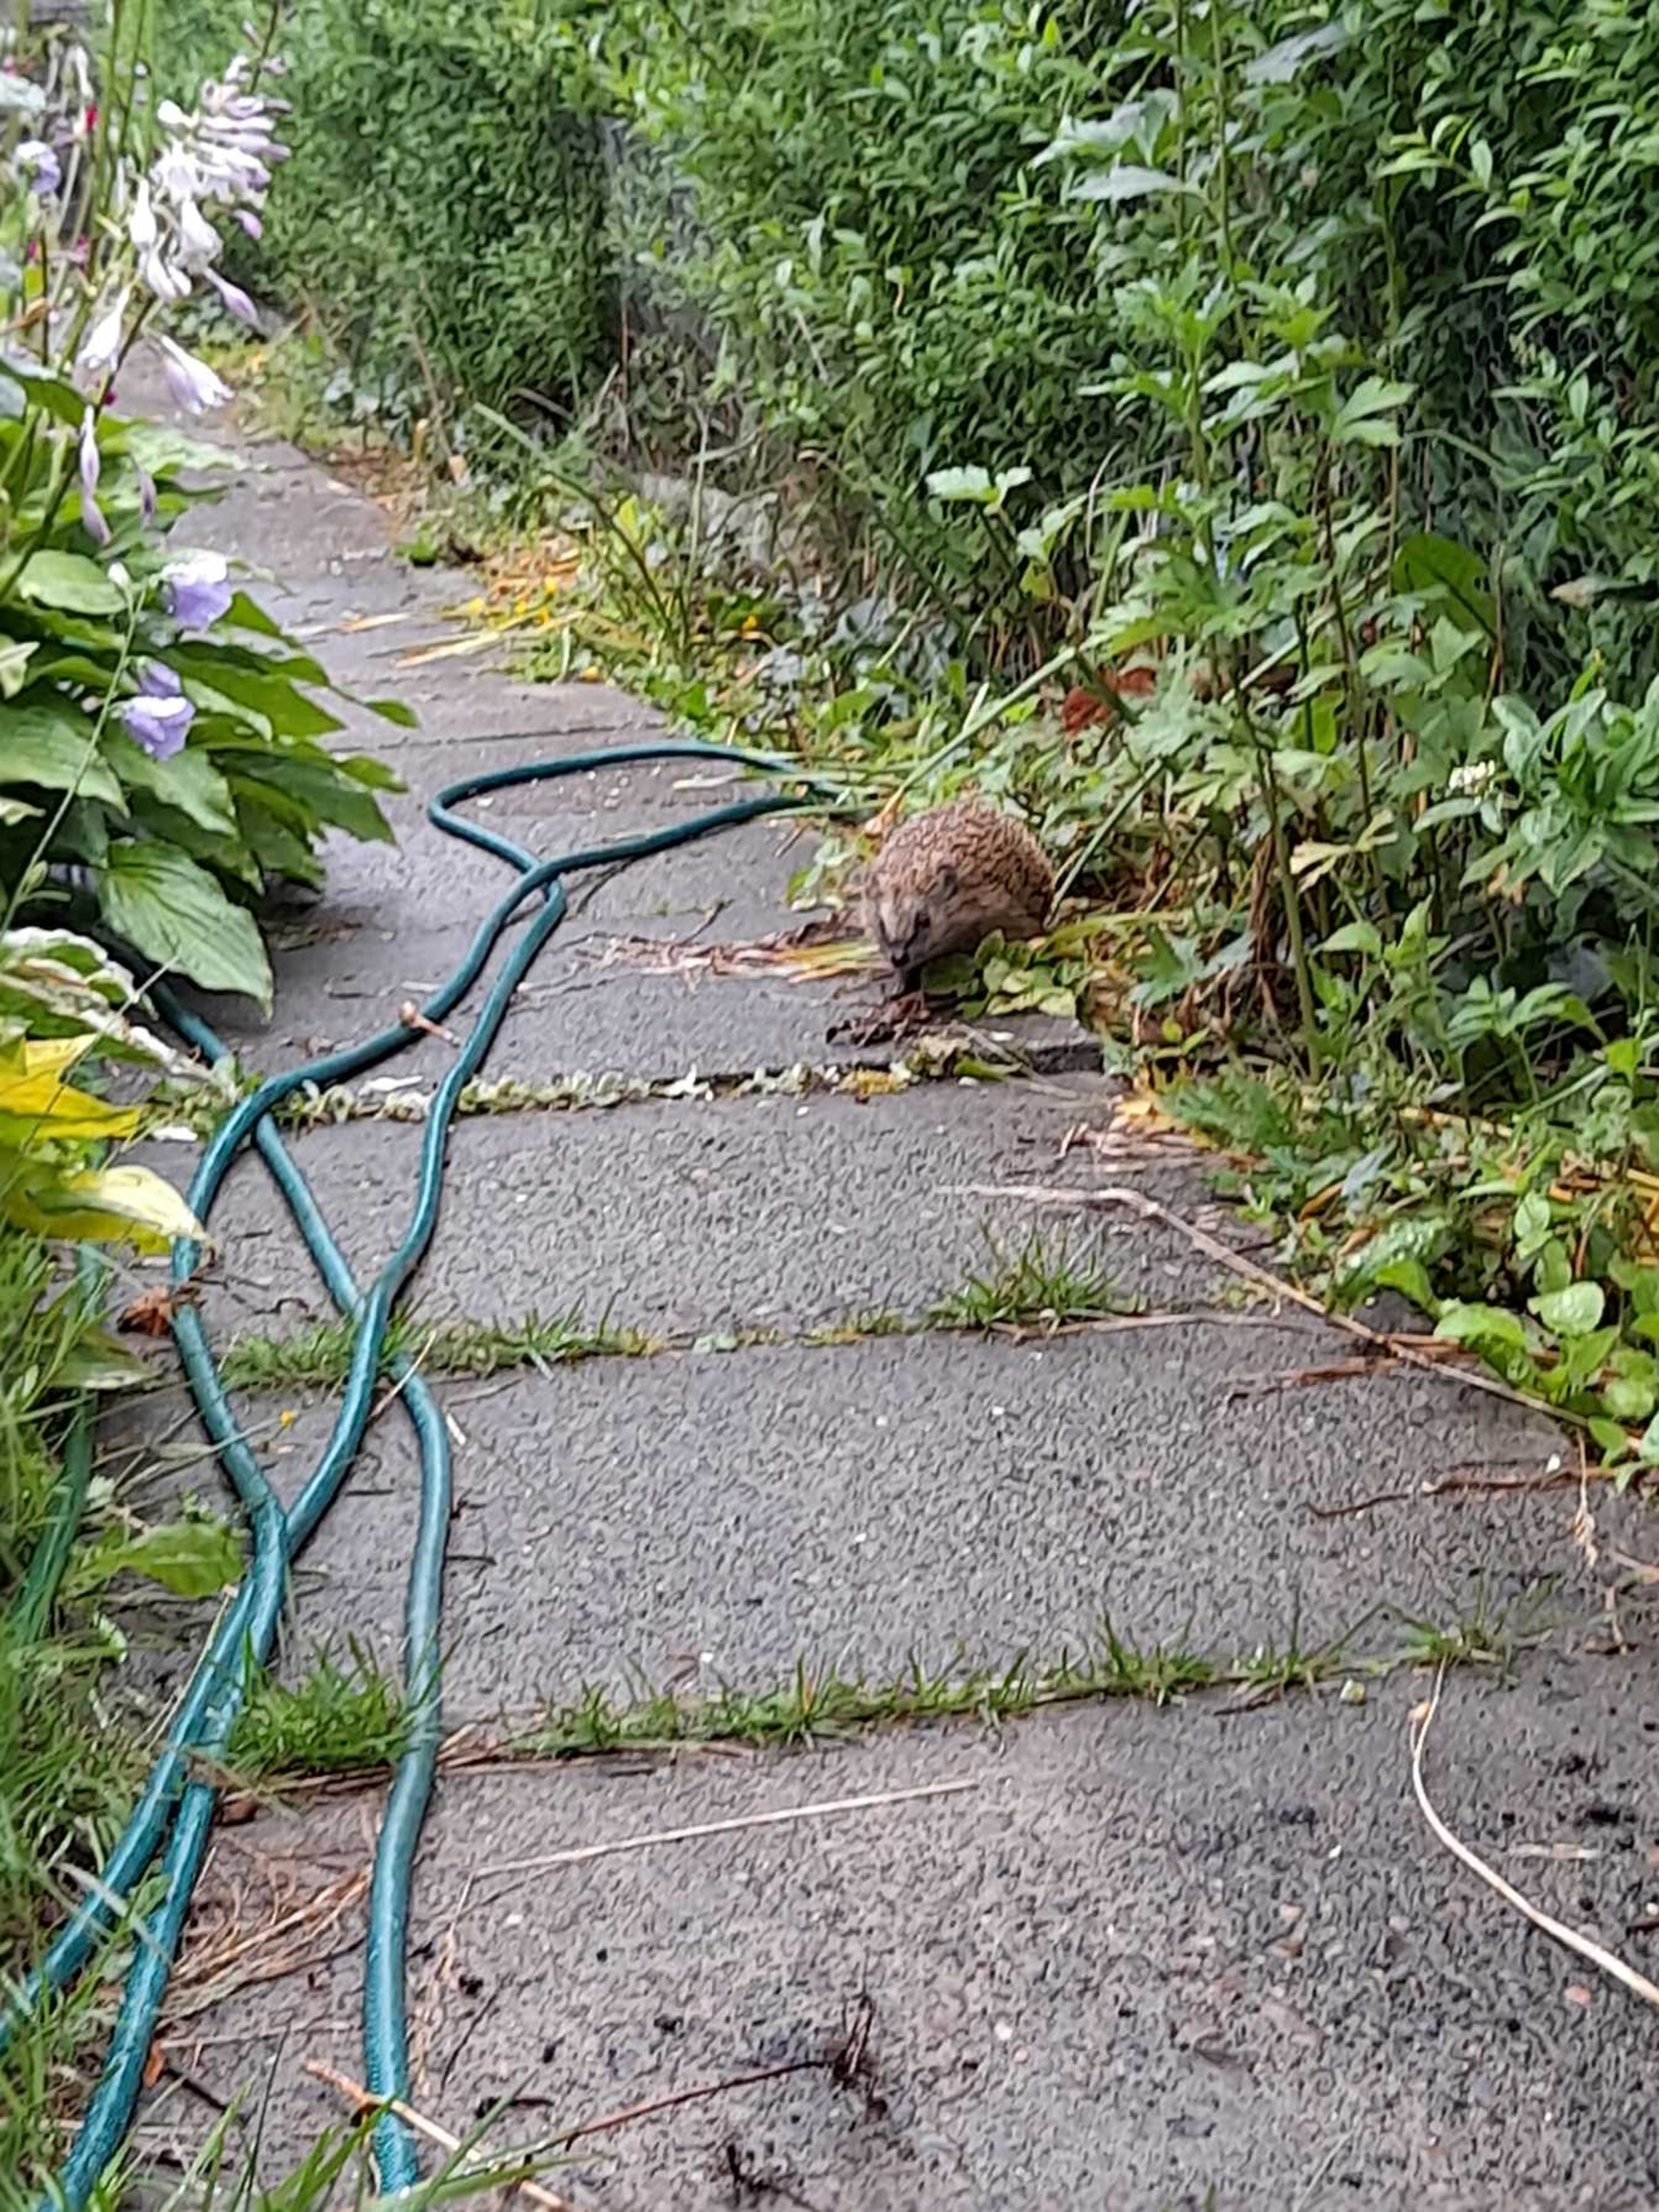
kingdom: Animalia
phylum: Chordata
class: Mammalia
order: Erinaceomorpha
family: Erinaceidae
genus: Erinaceus
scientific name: Erinaceus europaeus
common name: Pindsvin
